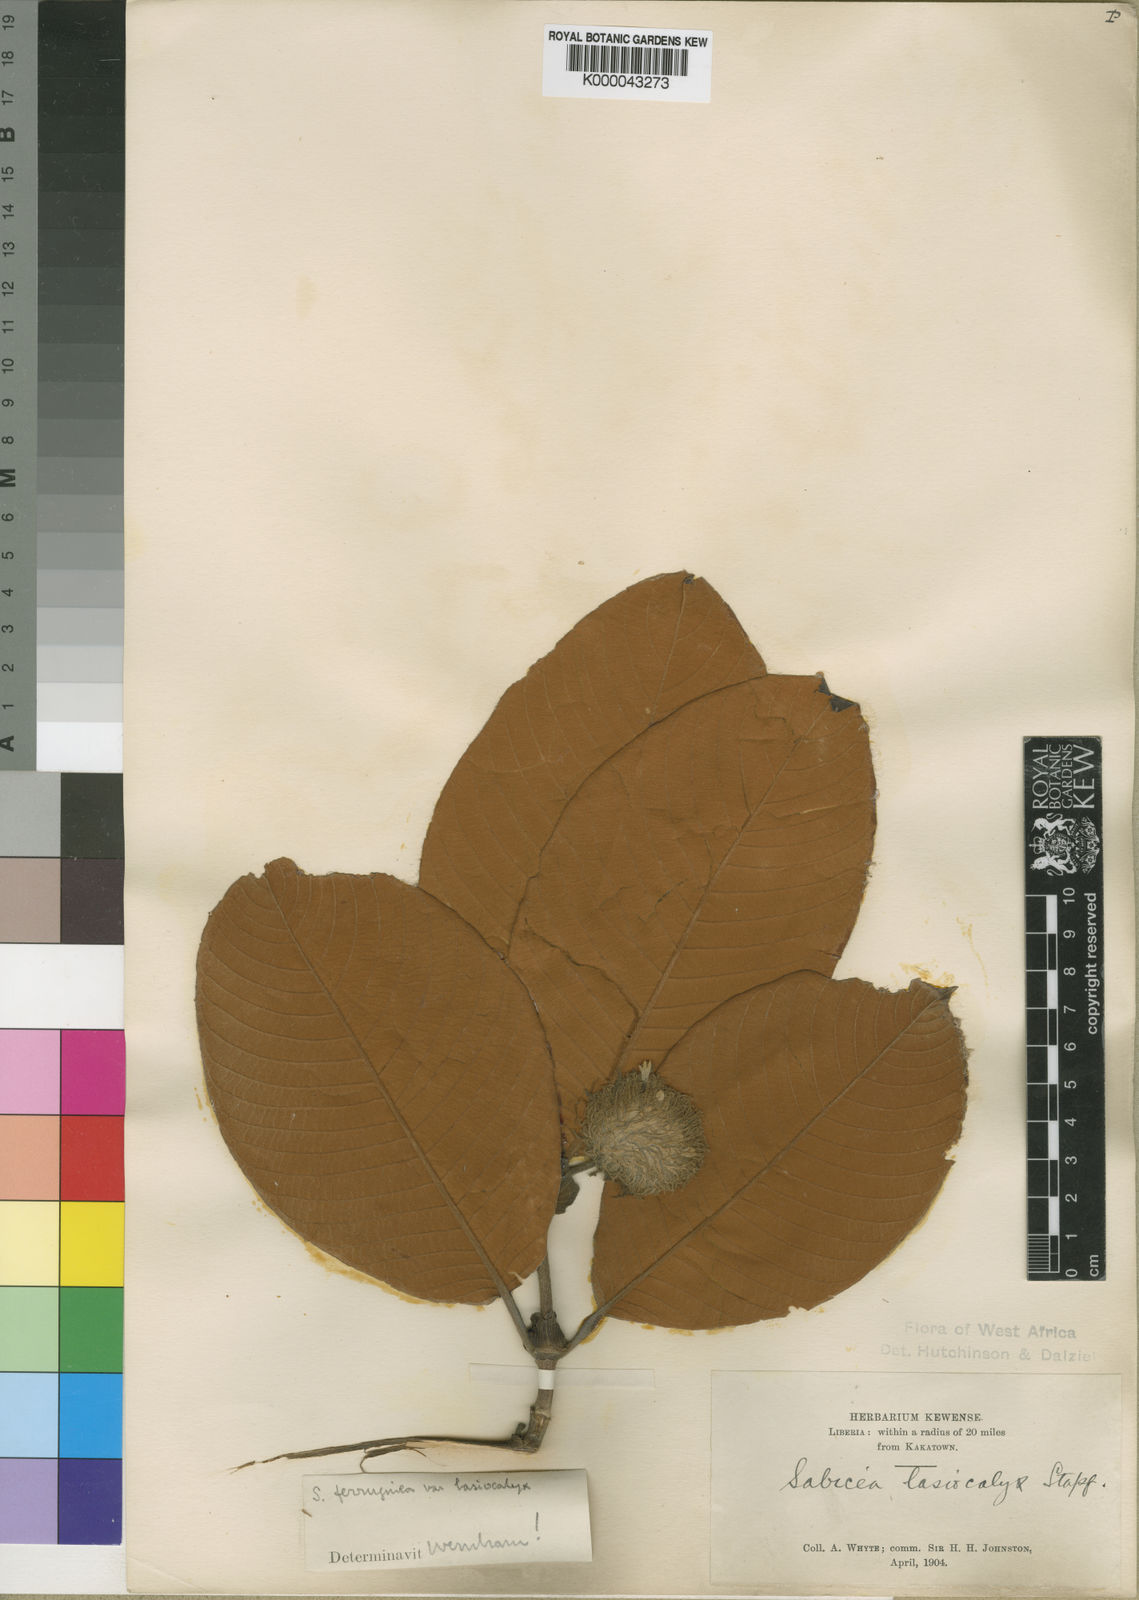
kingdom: Plantae
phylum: Tracheophyta
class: Magnoliopsida
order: Gentianales
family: Rubiaceae
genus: Sabicea
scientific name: Sabicea ferruginea
